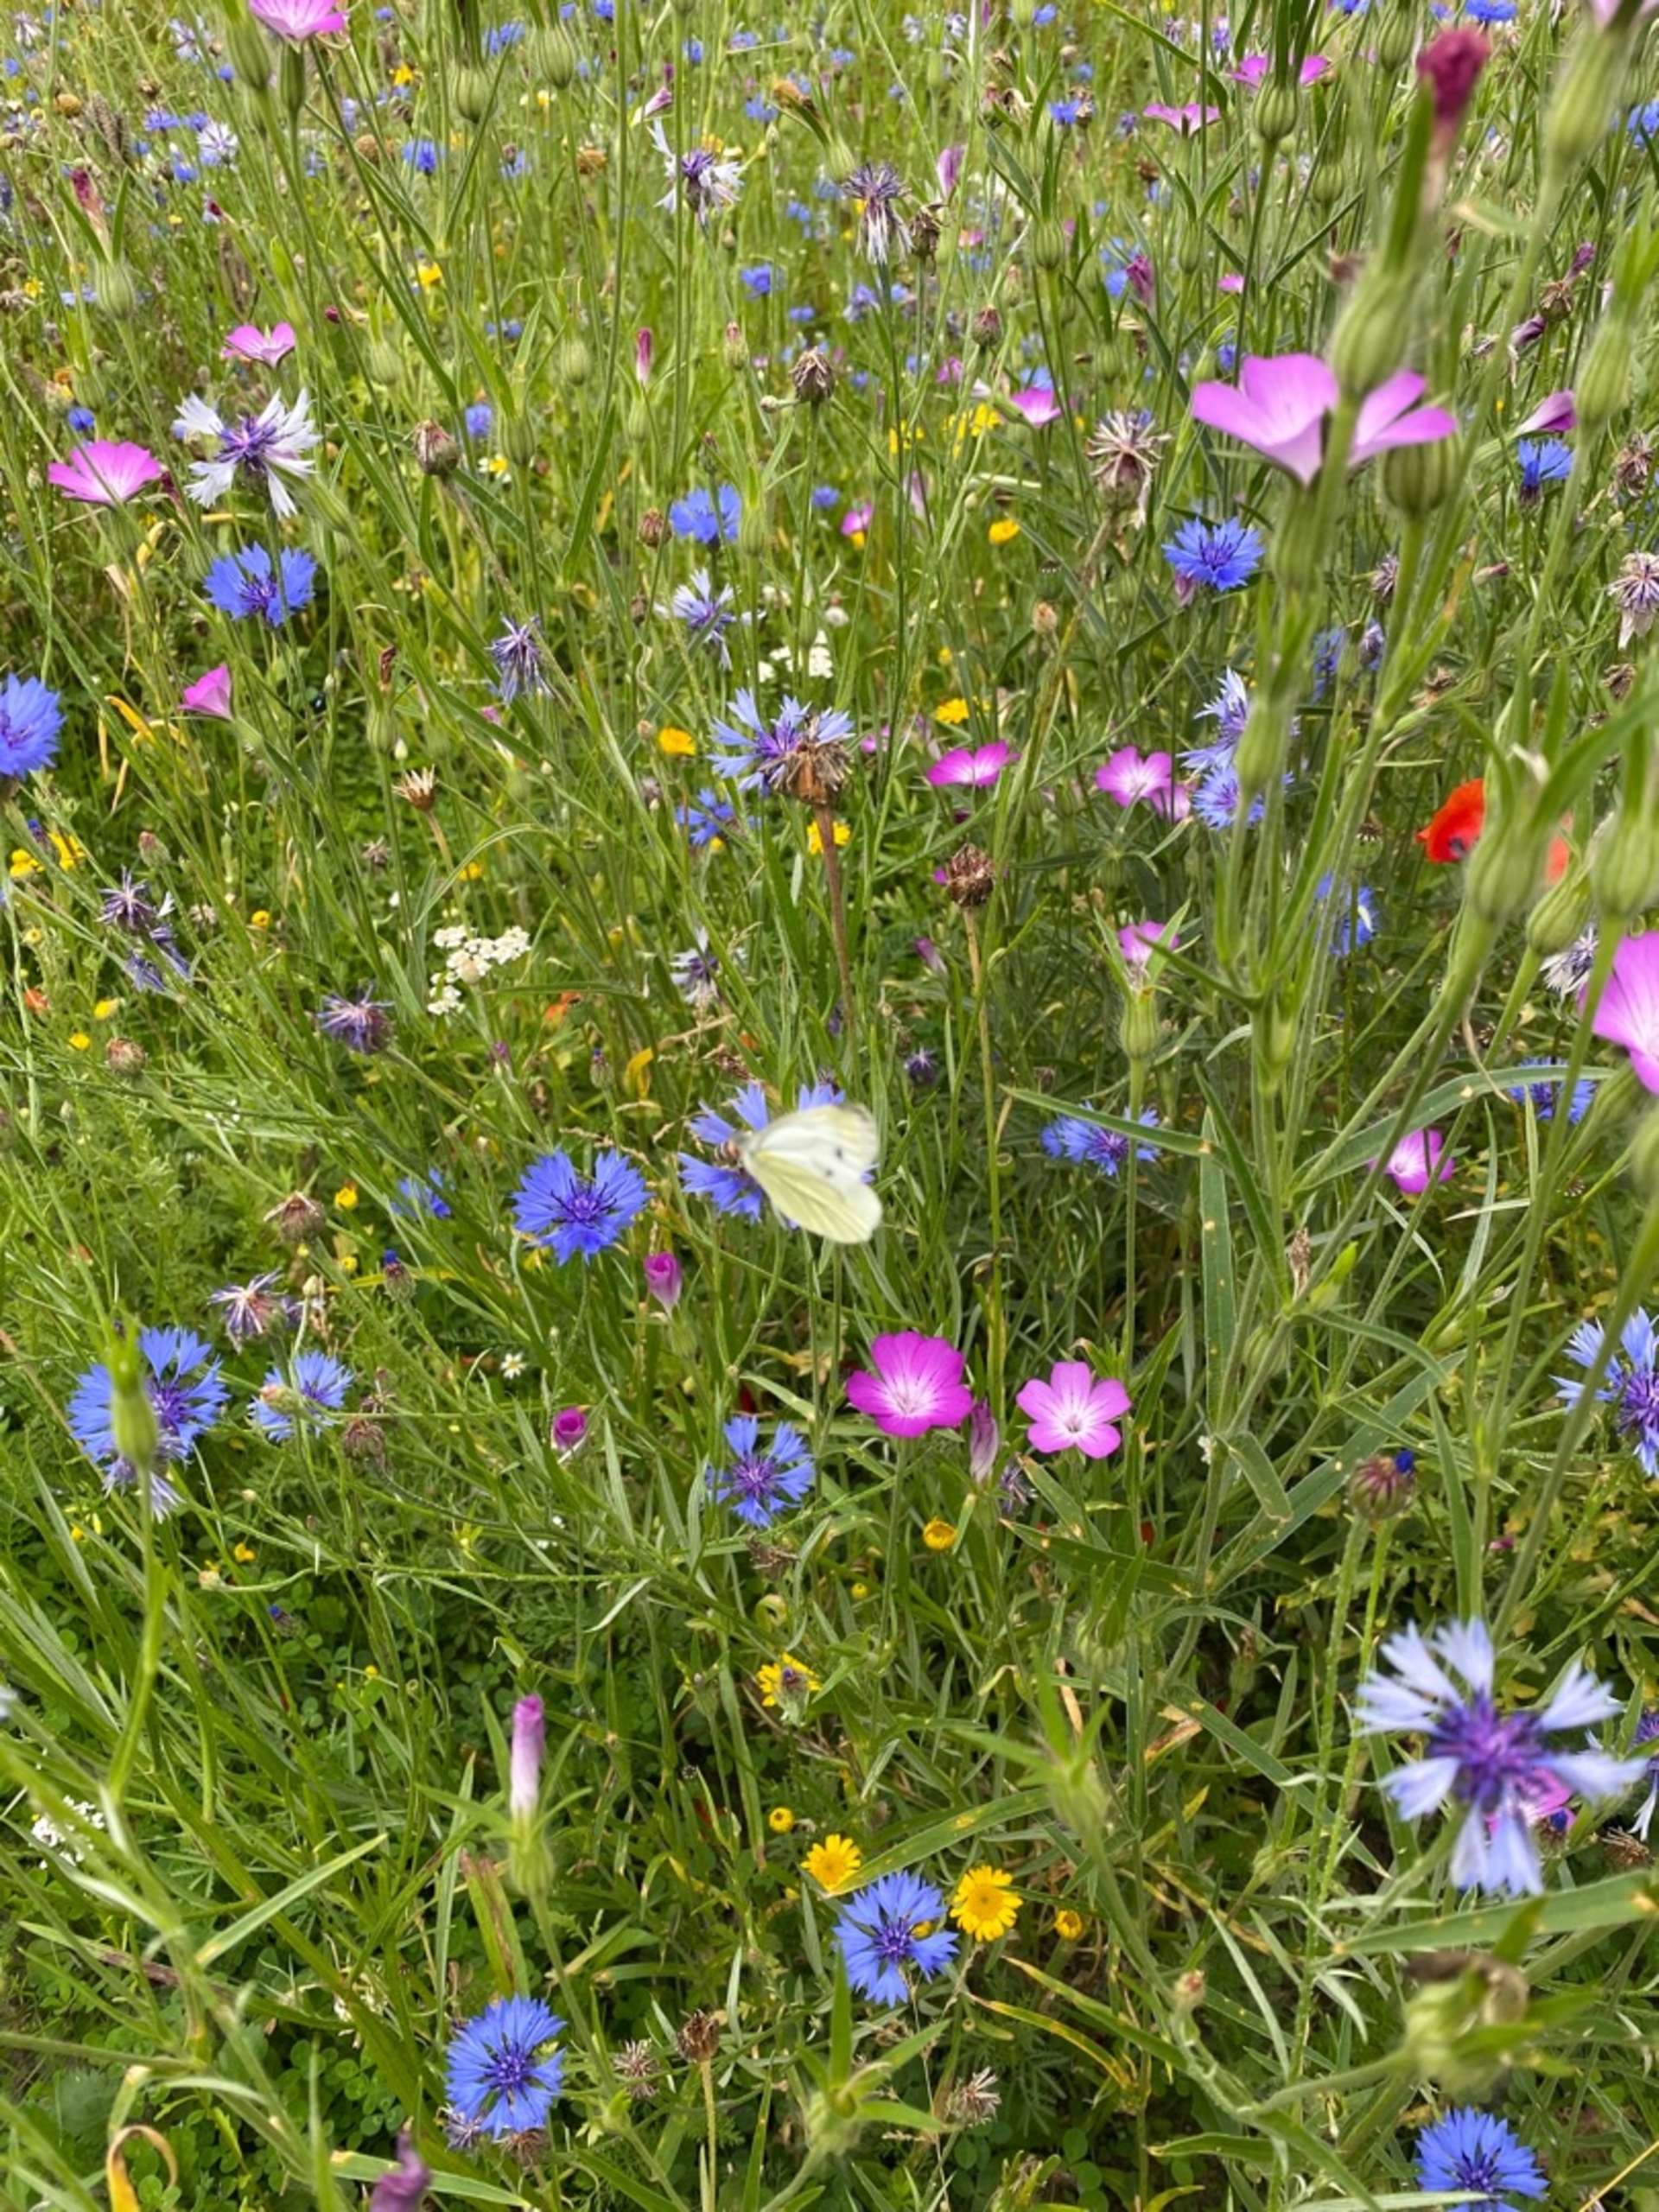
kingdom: Animalia
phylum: Arthropoda
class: Insecta
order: Lepidoptera
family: Pieridae
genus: Pieris
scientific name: Pieris napi
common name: Grønåret kålsommerfugl
